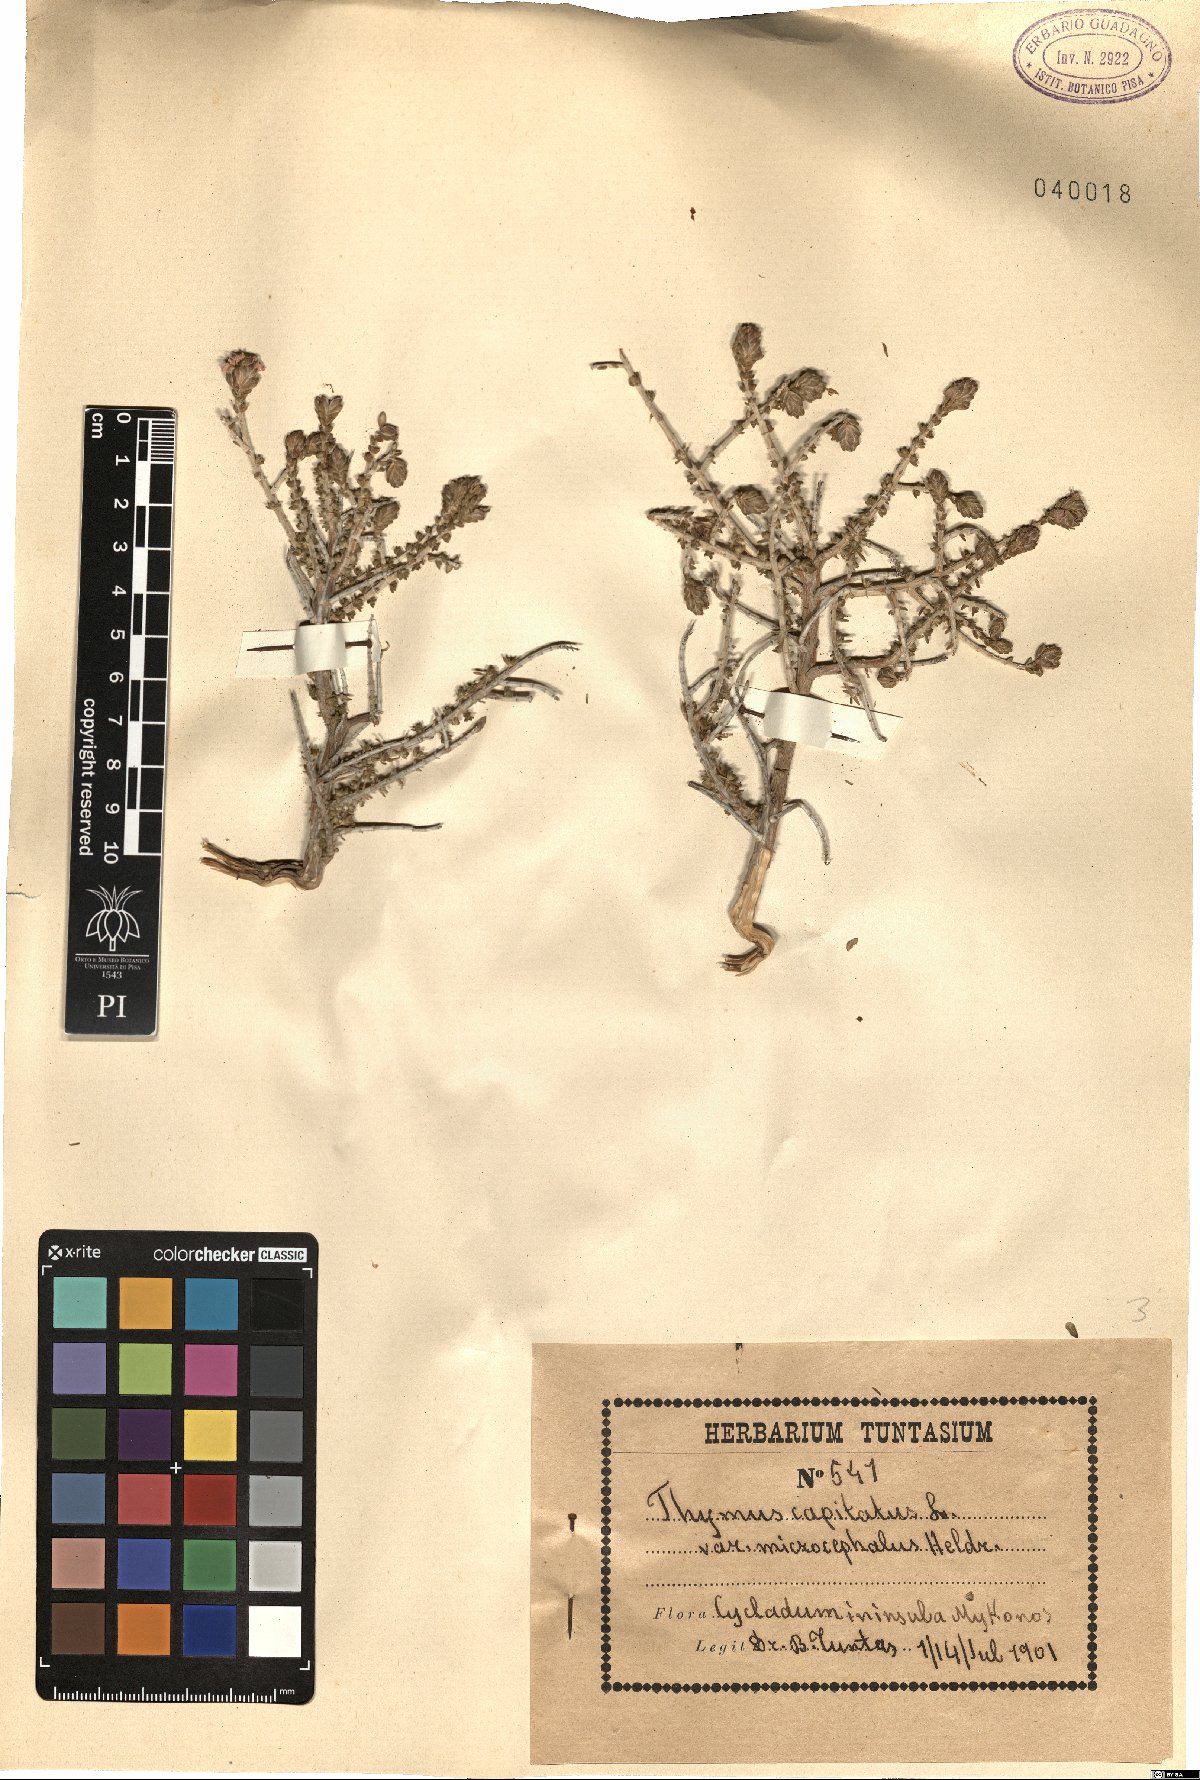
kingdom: Plantae
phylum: Tracheophyta
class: Magnoliopsida
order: Lamiales
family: Lamiaceae
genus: Thymbra
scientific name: Thymbra capitata
